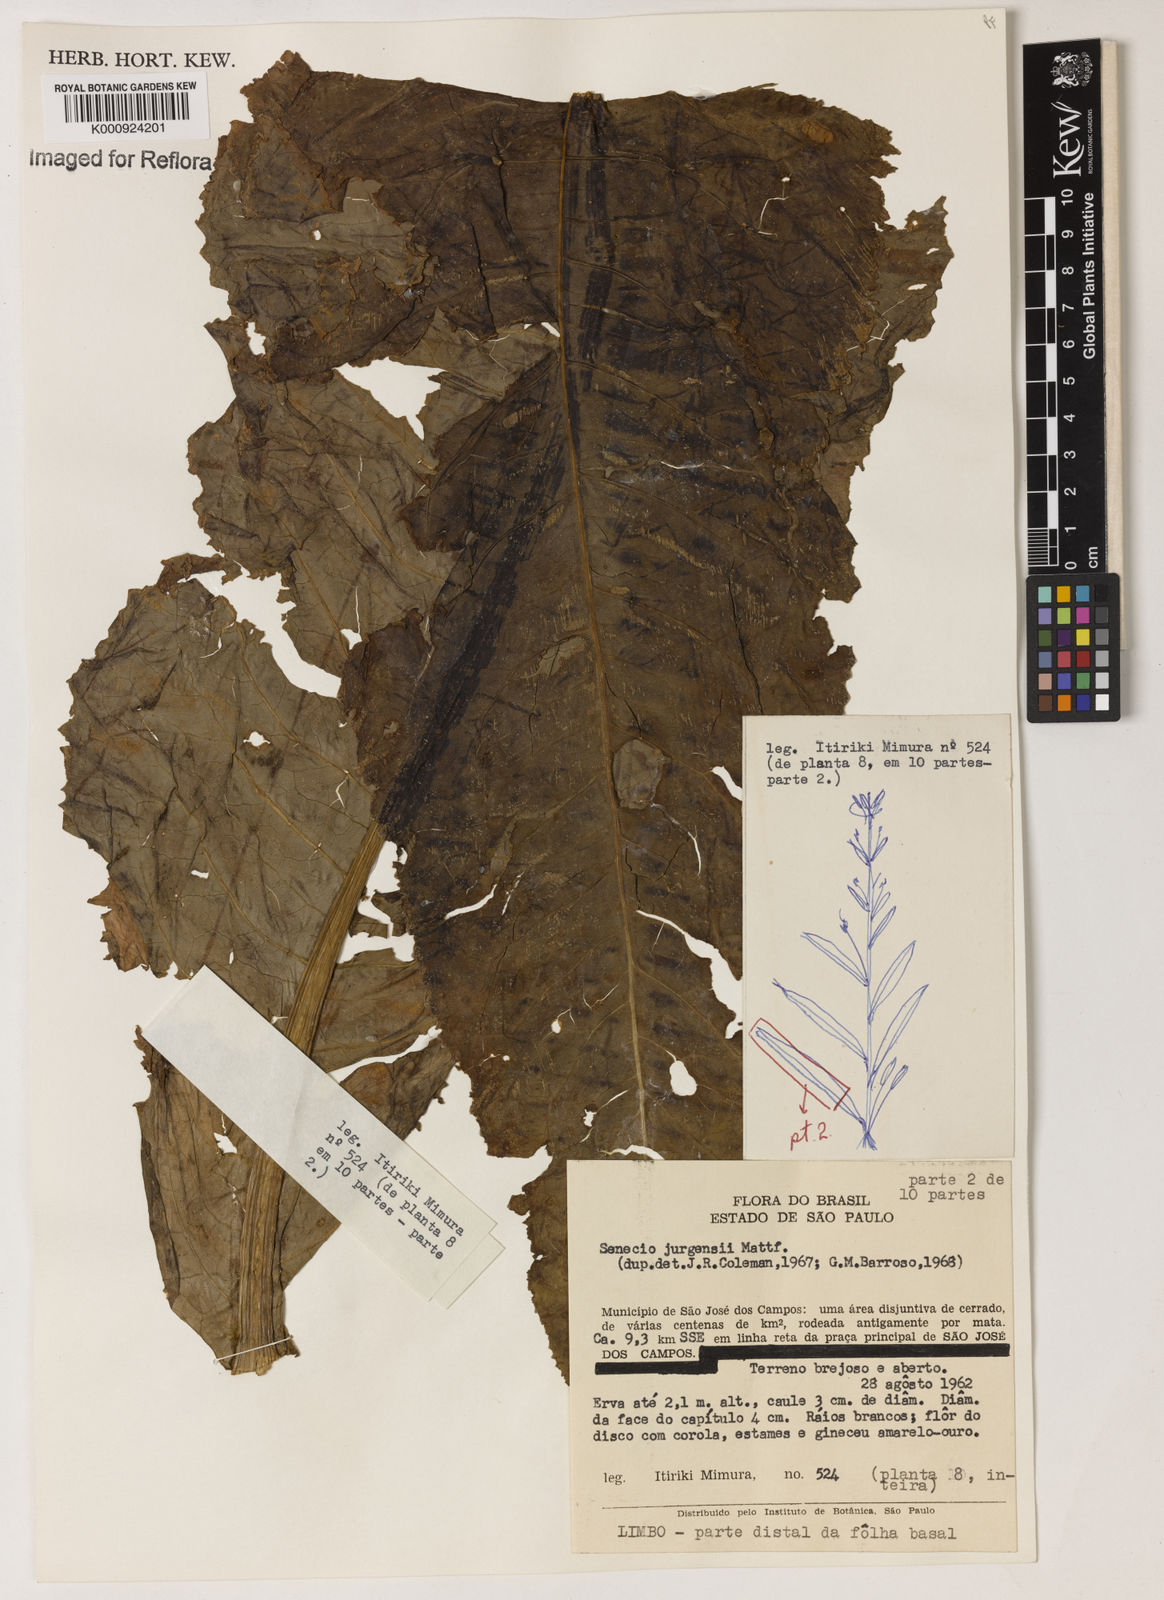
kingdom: Plantae
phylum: Tracheophyta
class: Magnoliopsida
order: Asterales
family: Asteraceae
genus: Senecio
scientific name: Senecio juergensii
